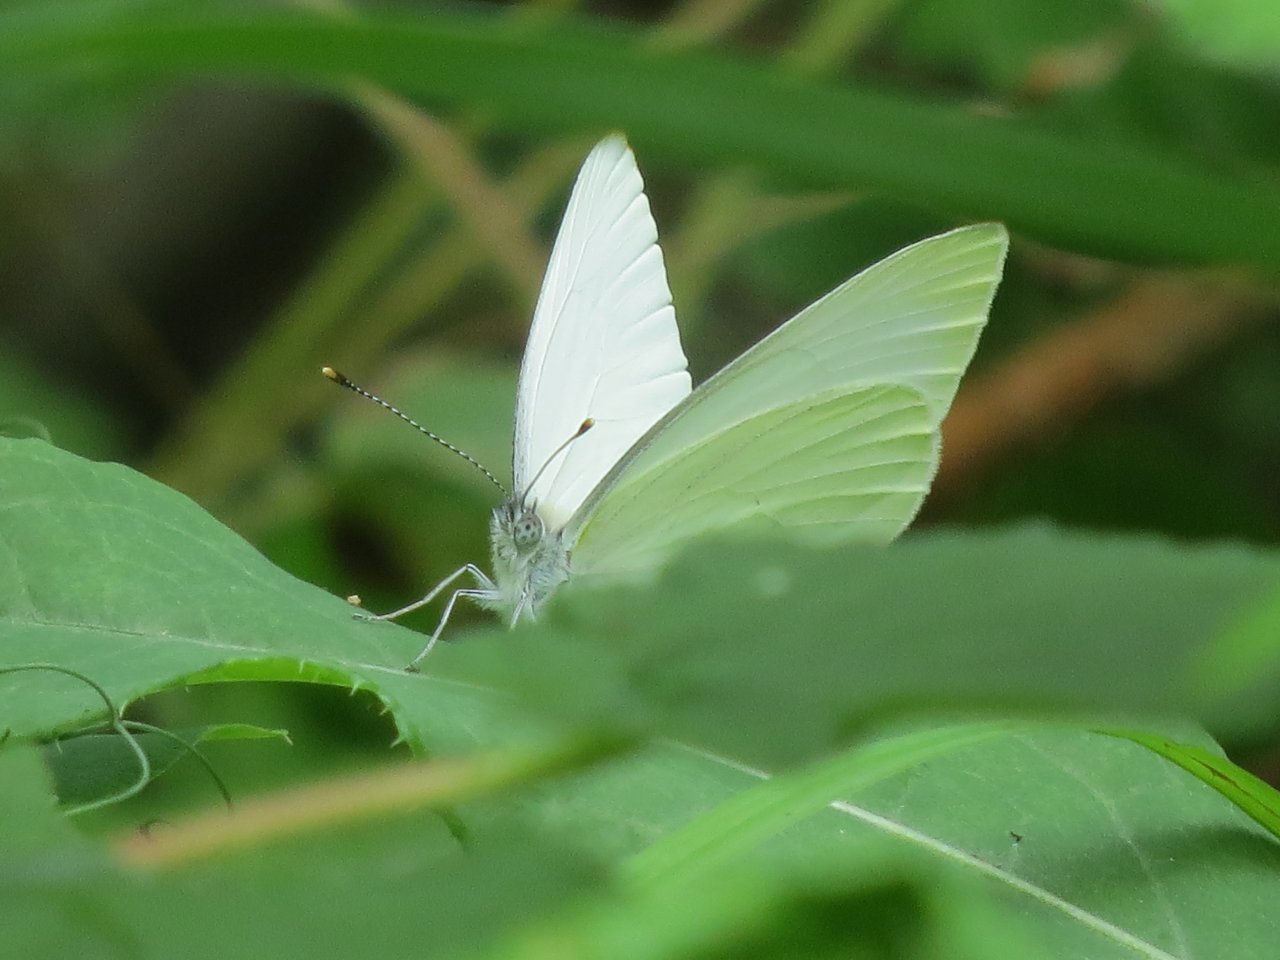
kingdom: Animalia
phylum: Arthropoda
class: Insecta
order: Lepidoptera
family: Pieridae
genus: Pieris
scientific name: Pieris rapae
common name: Cabbage White
